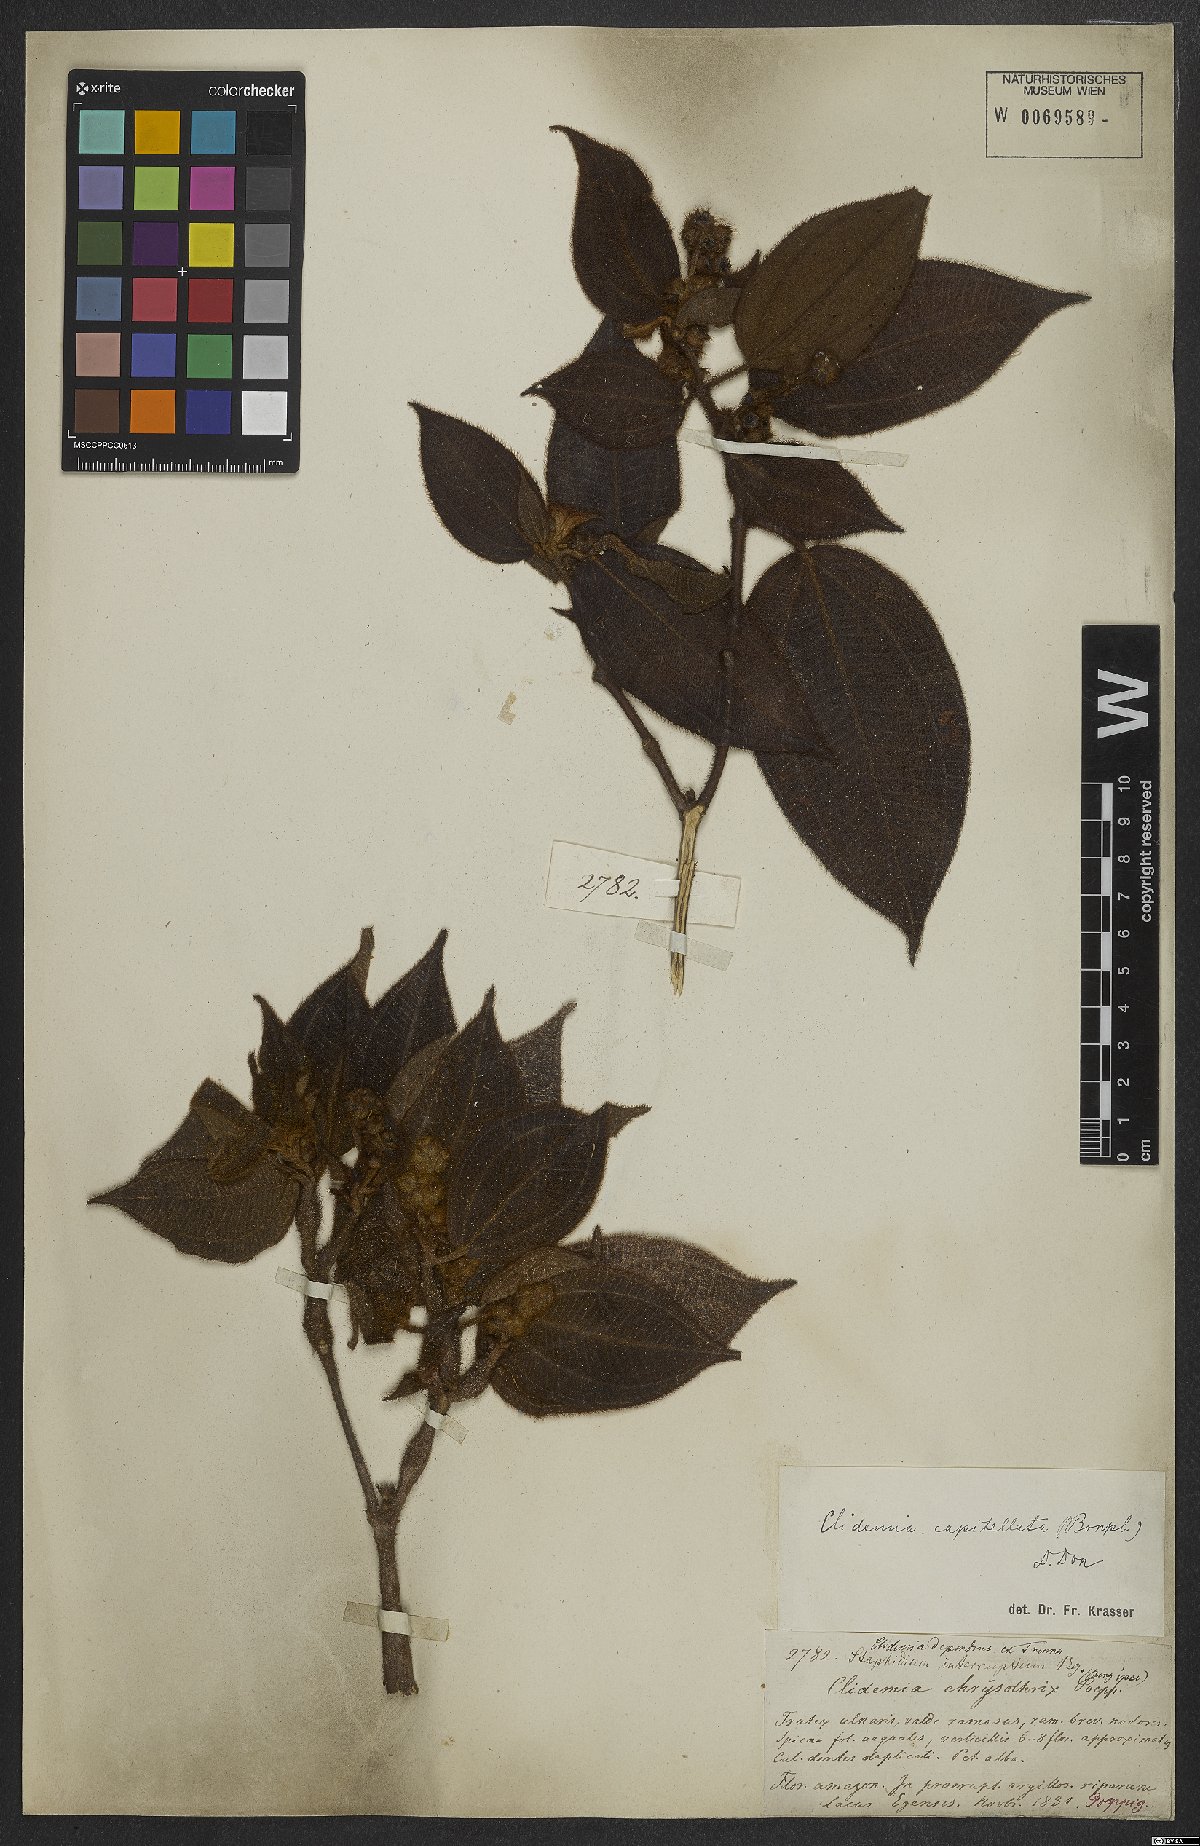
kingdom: Plantae
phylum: Tracheophyta
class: Magnoliopsida
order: Myrtales
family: Melastomataceae
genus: Miconia
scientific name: Miconia dependens
